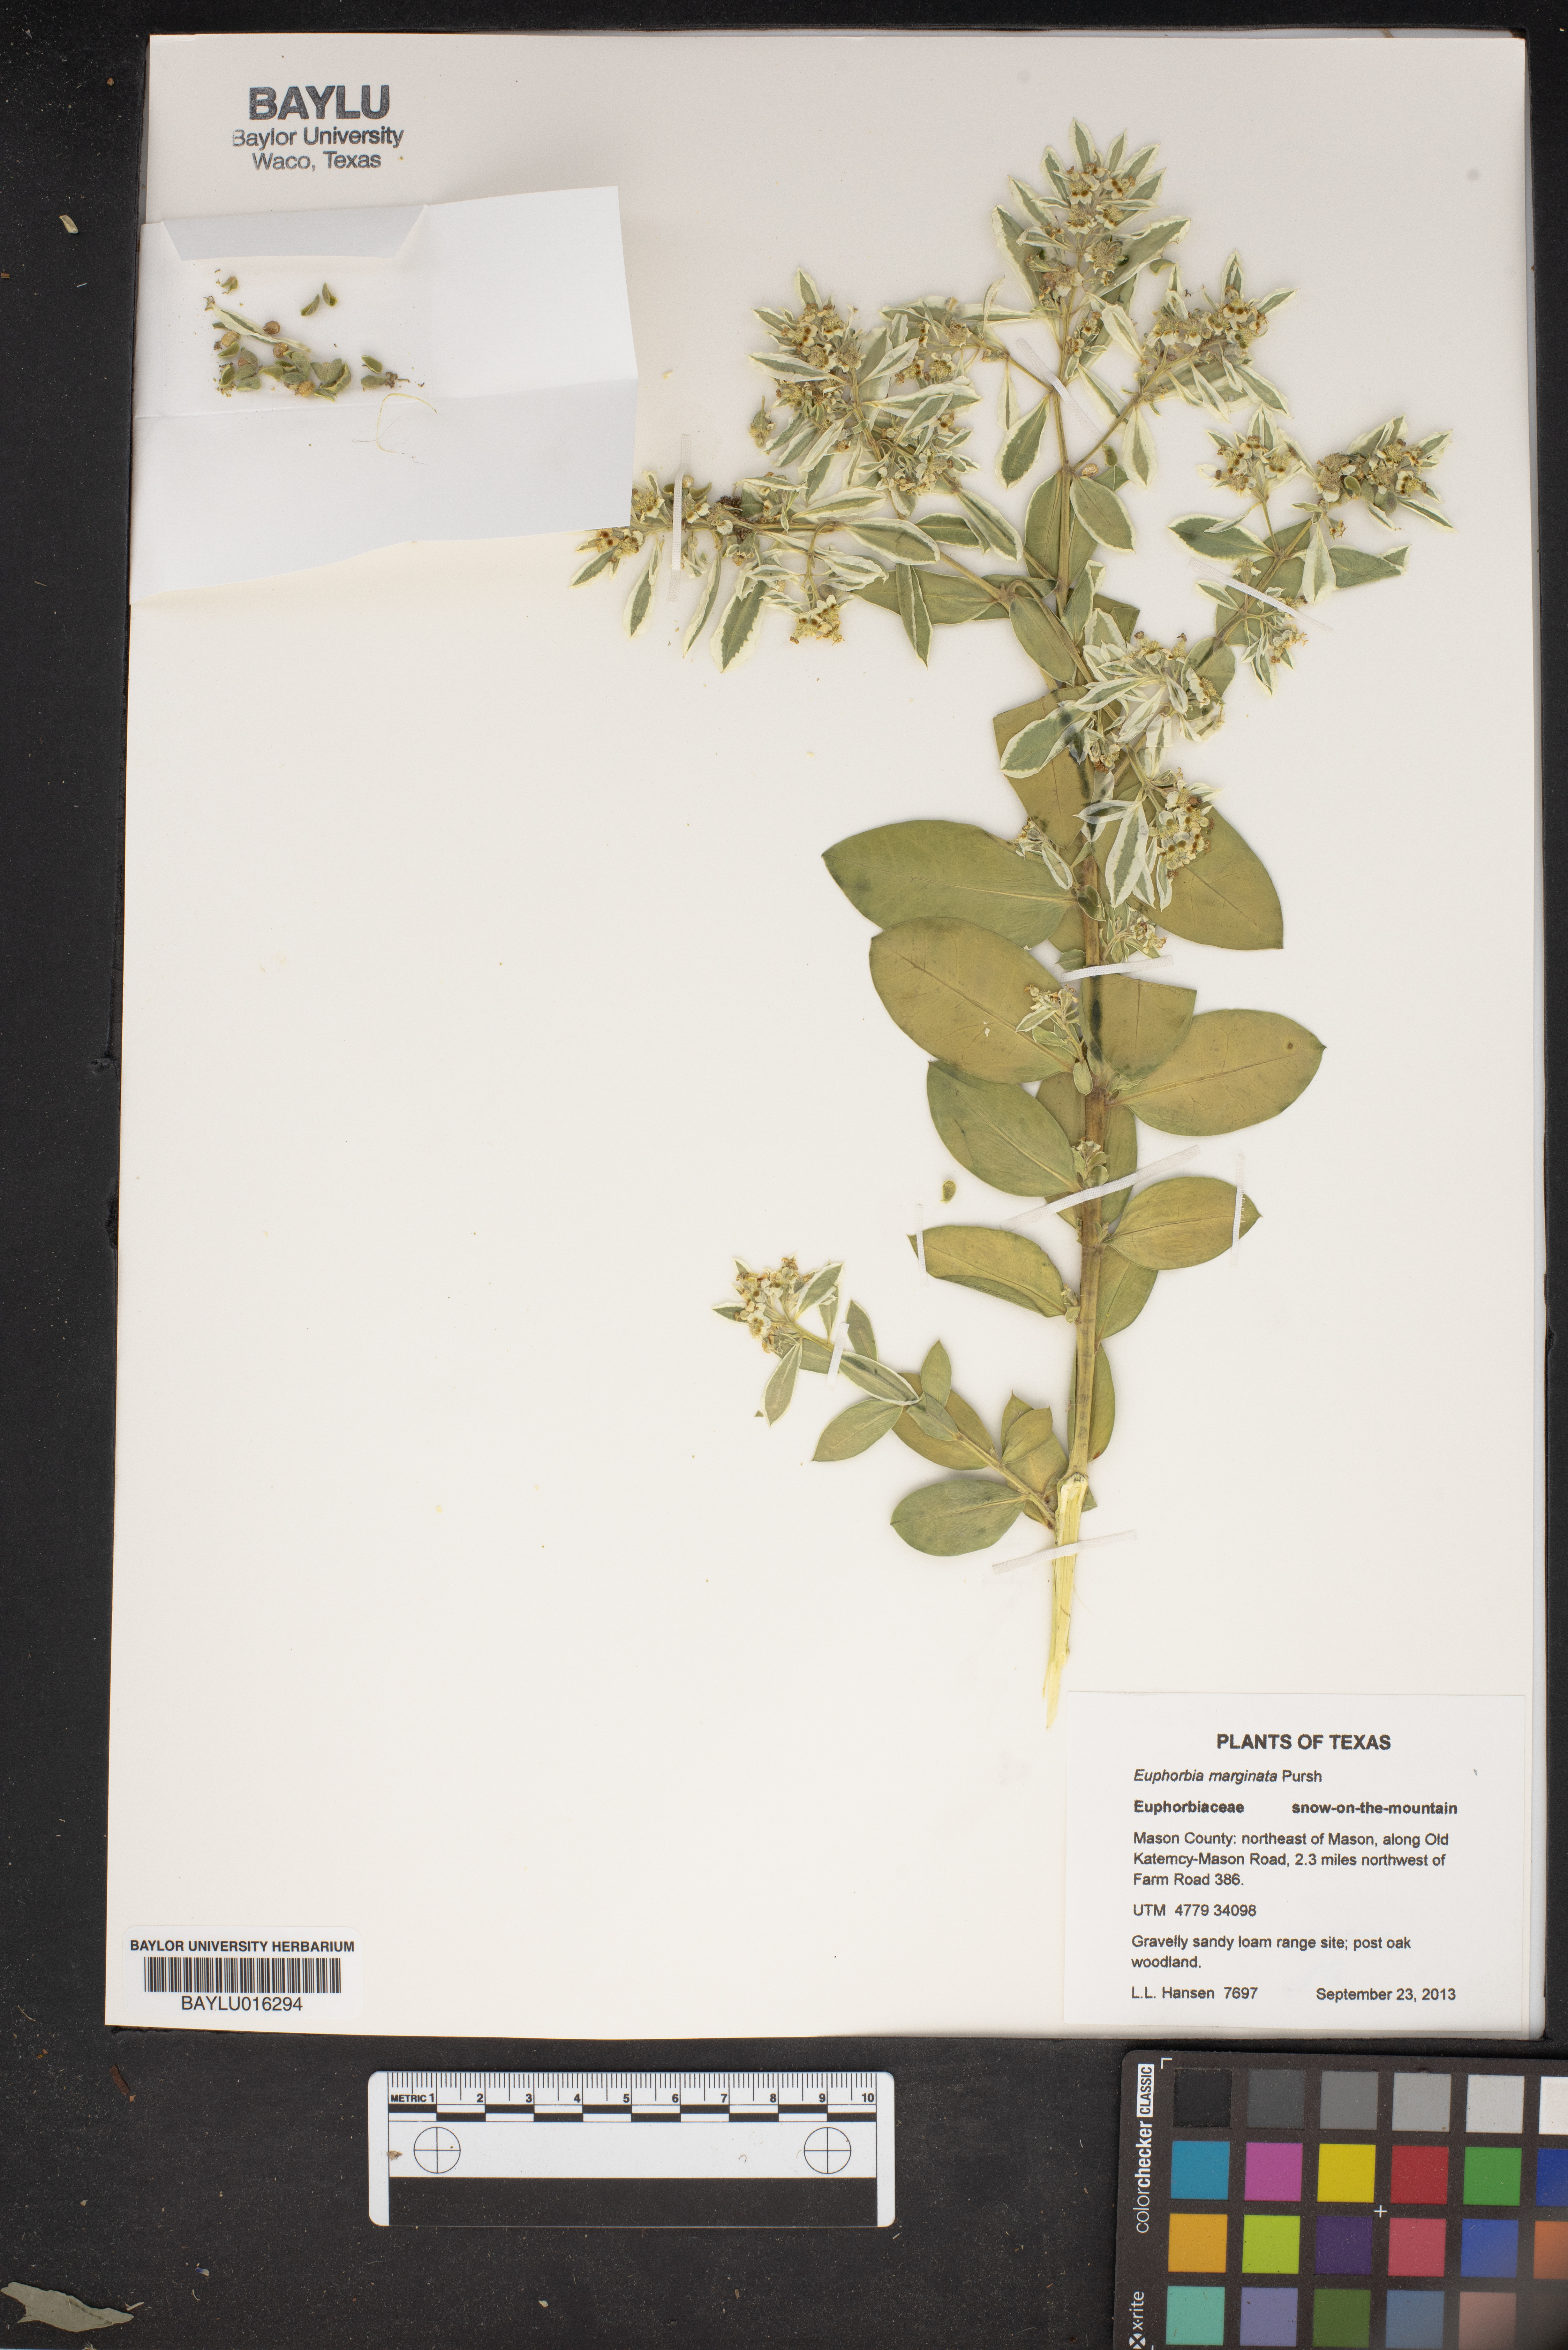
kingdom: Plantae
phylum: Tracheophyta
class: Magnoliopsida
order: Malpighiales
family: Euphorbiaceae
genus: Euphorbia
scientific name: Euphorbia marginata
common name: Ghostweed
